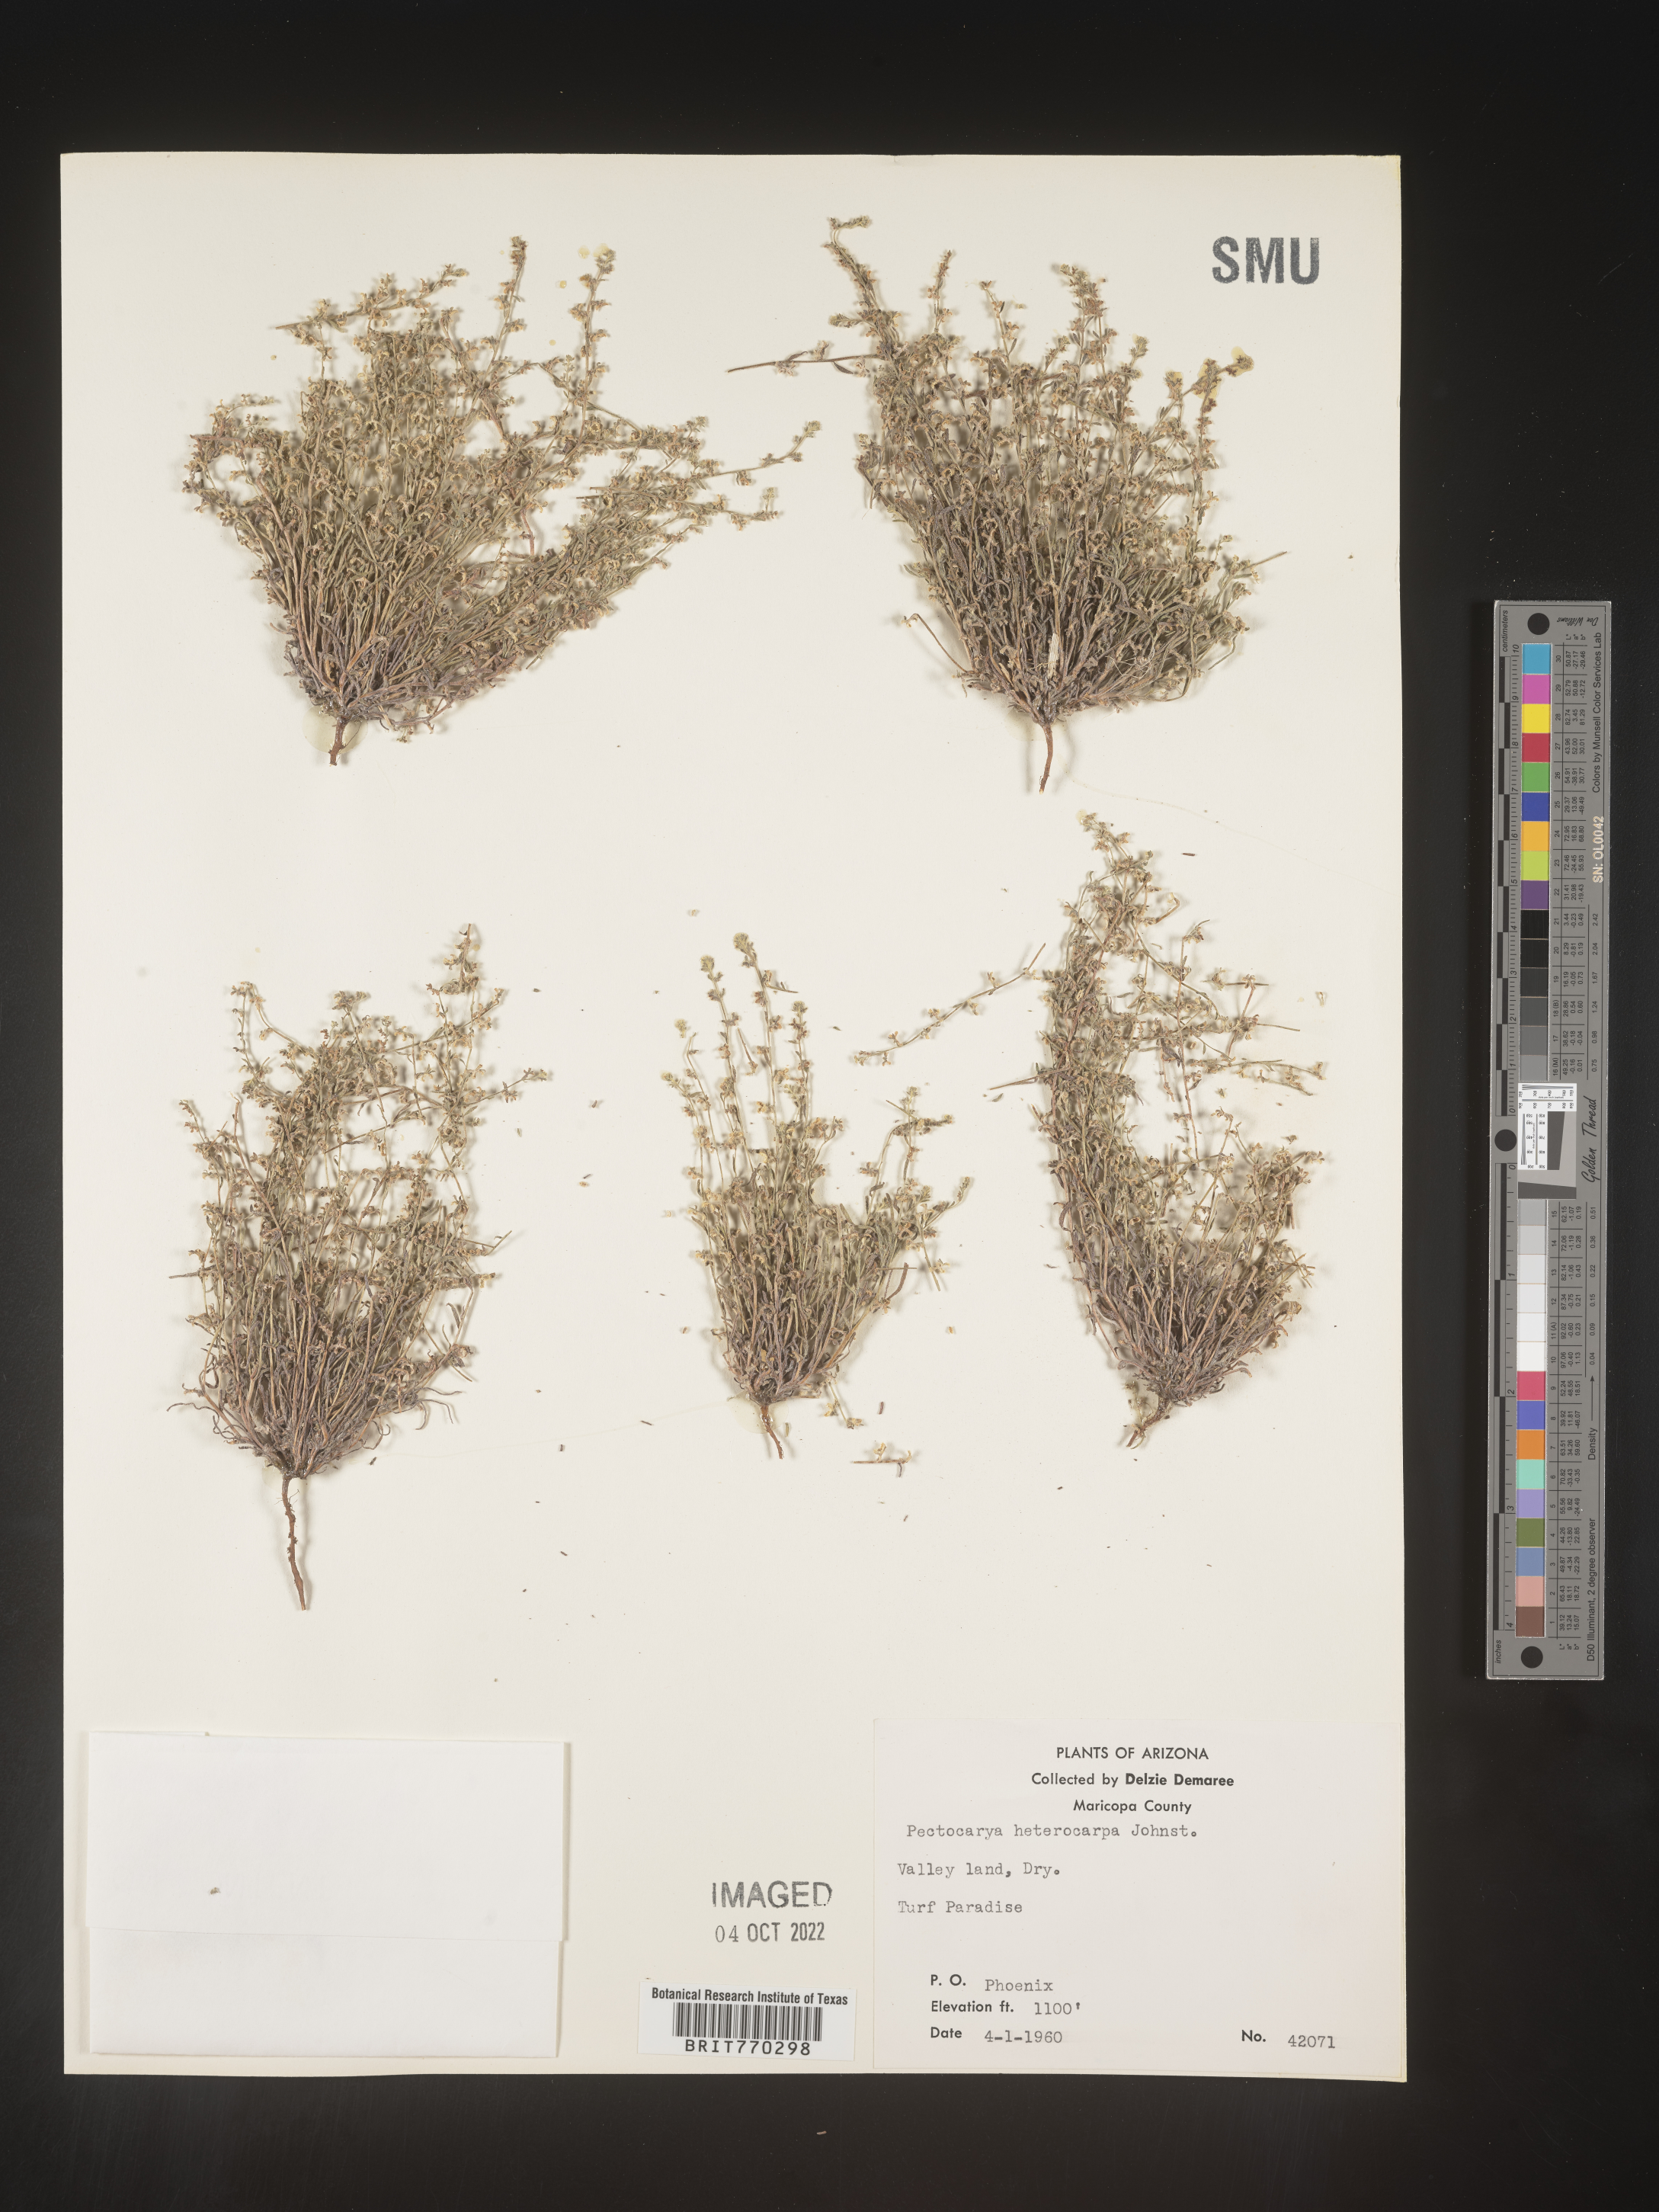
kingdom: Plantae
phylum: Tracheophyta
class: Magnoliopsida
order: Boraginales
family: Boraginaceae
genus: Pectocarya
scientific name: Pectocarya
